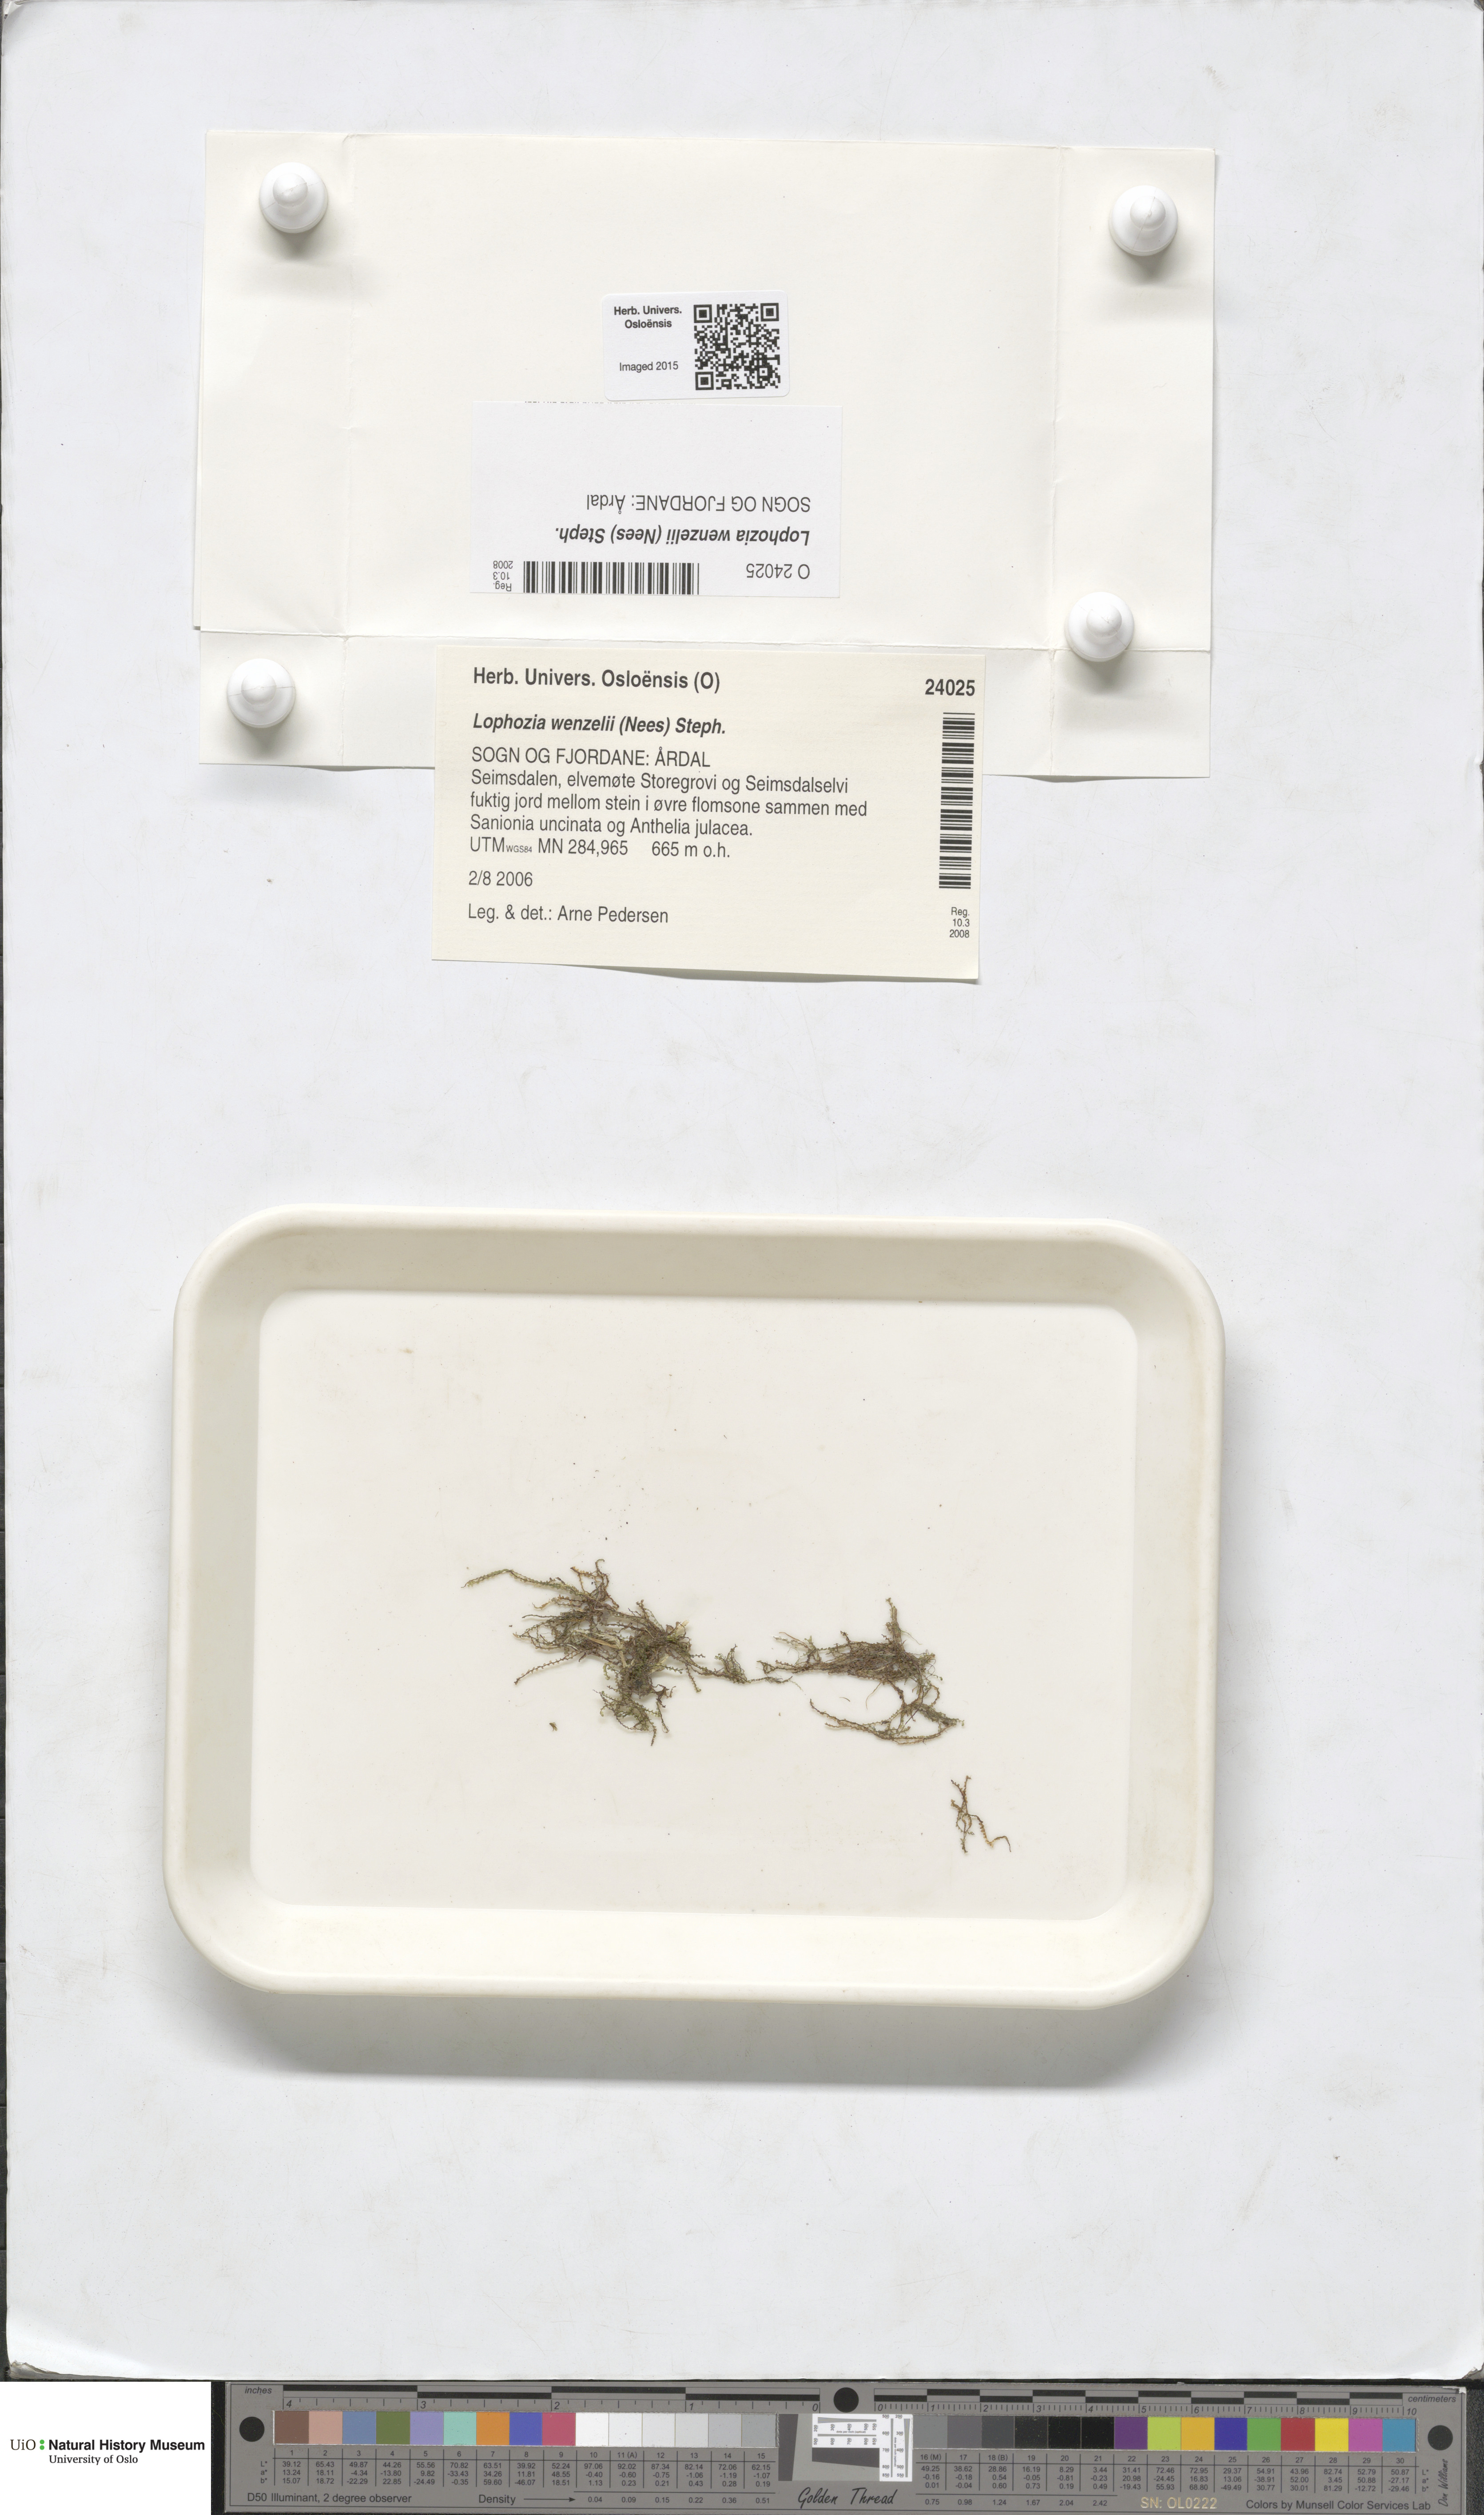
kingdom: Plantae
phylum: Marchantiophyta
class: Jungermanniopsida
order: Jungermanniales
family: Lophoziaceae
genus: Lophozia
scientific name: Lophozia wenzelii
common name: Wenzel s notchwort
